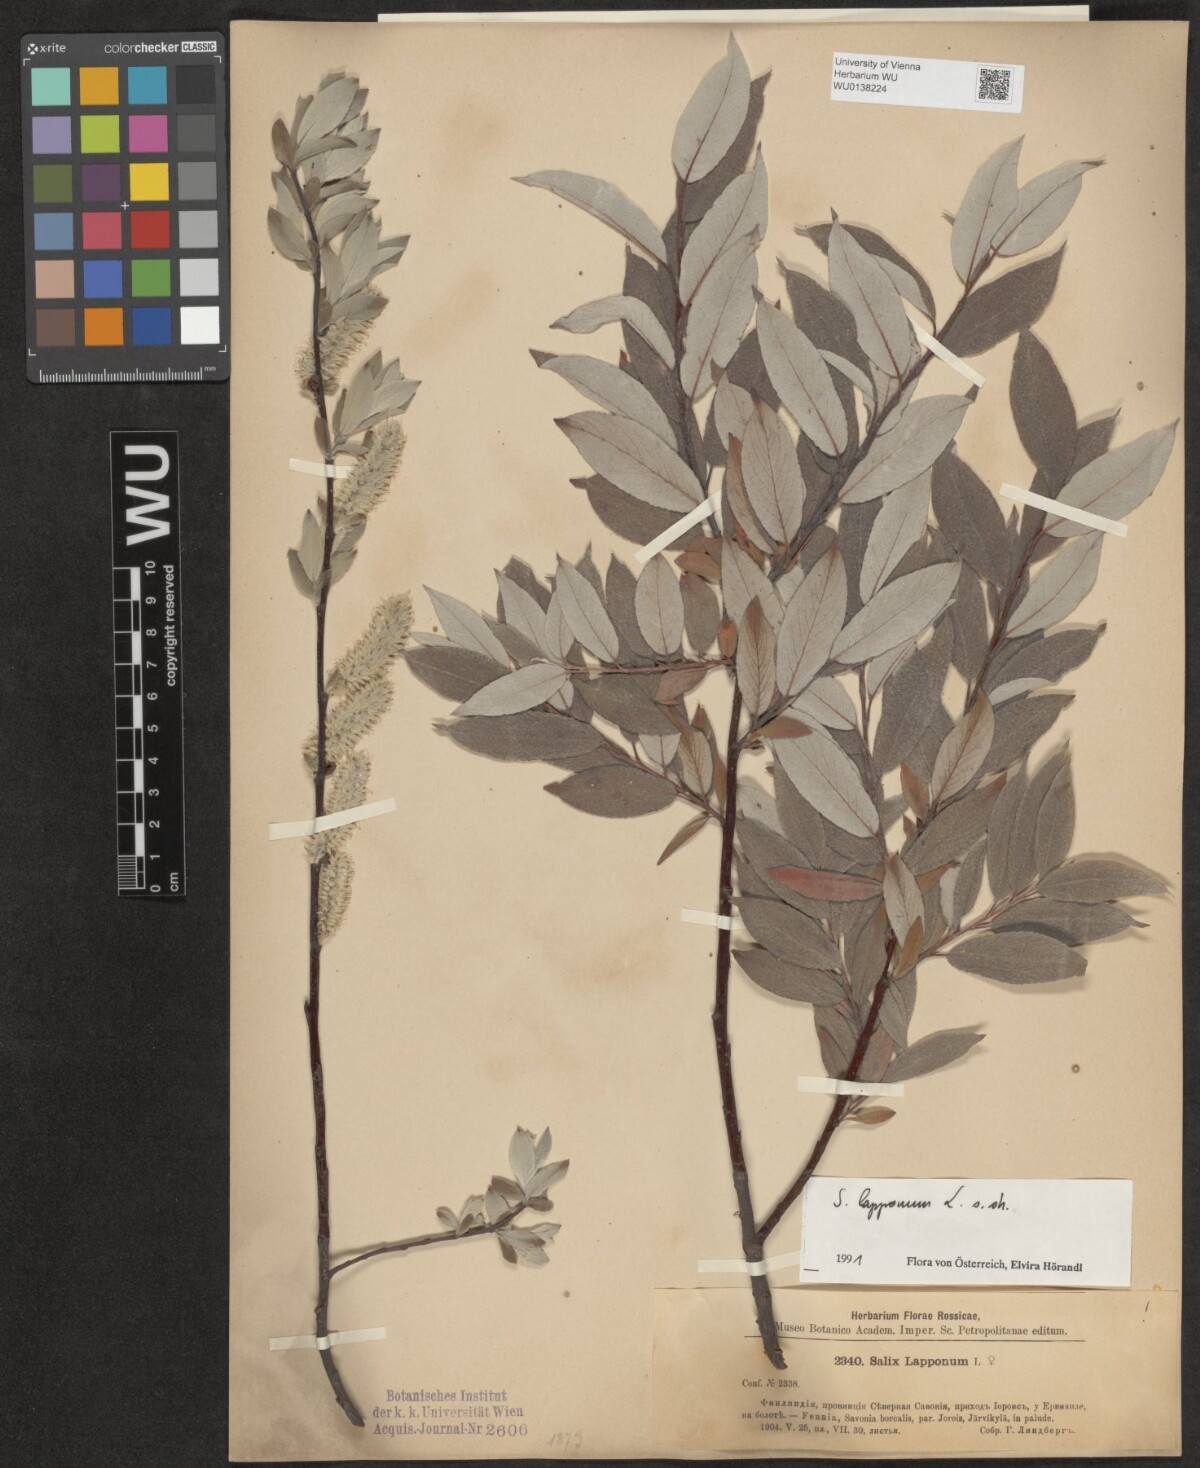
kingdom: Plantae
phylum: Tracheophyta
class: Magnoliopsida
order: Malpighiales
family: Salicaceae
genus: Salix
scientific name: Salix lapponum
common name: Downy willow
